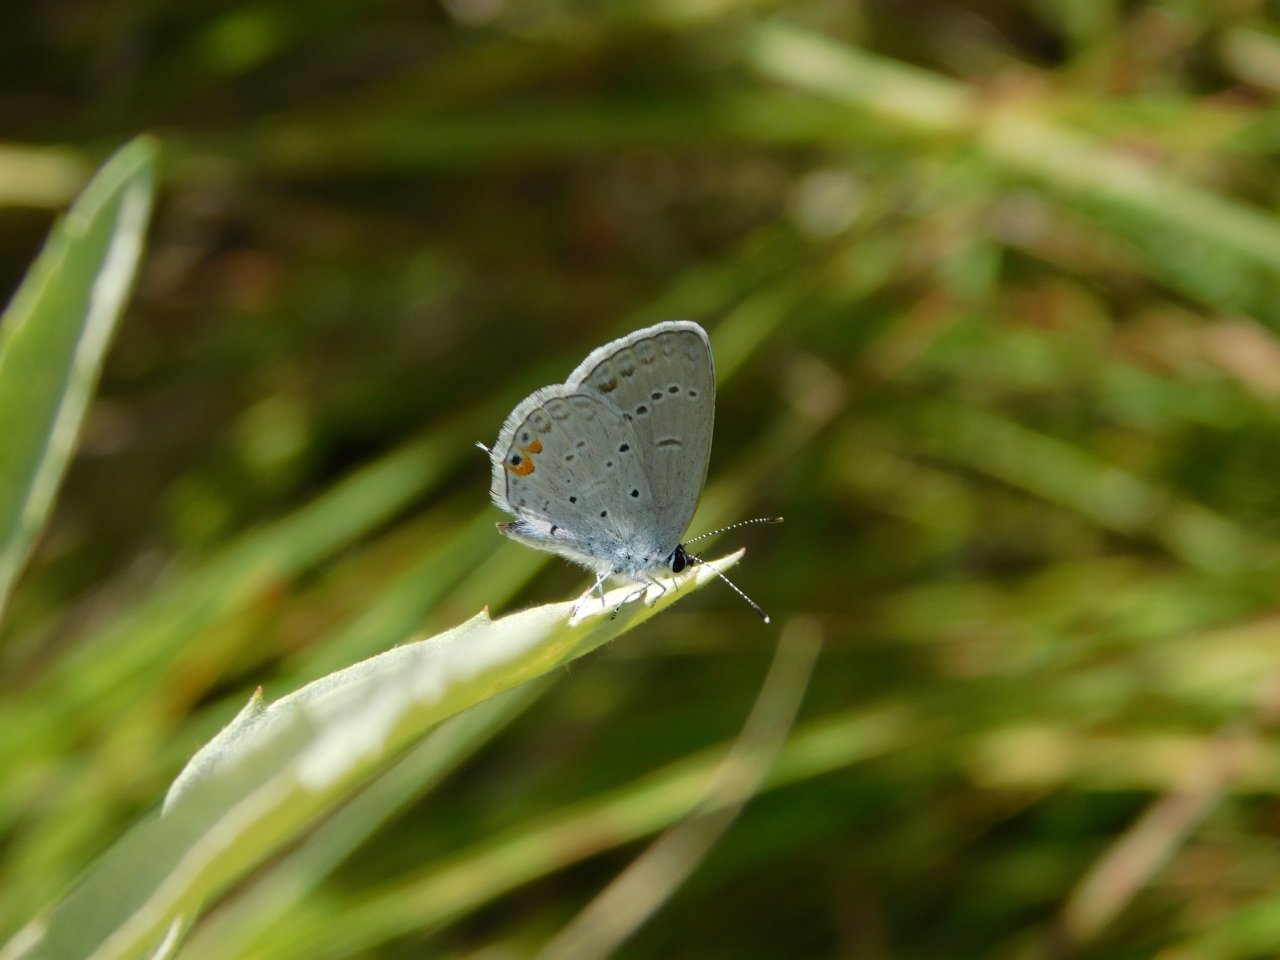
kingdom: Animalia
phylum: Arthropoda
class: Insecta
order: Lepidoptera
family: Lycaenidae
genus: Elkalyce
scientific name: Elkalyce comyntas
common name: Eastern Tailed-Blue
